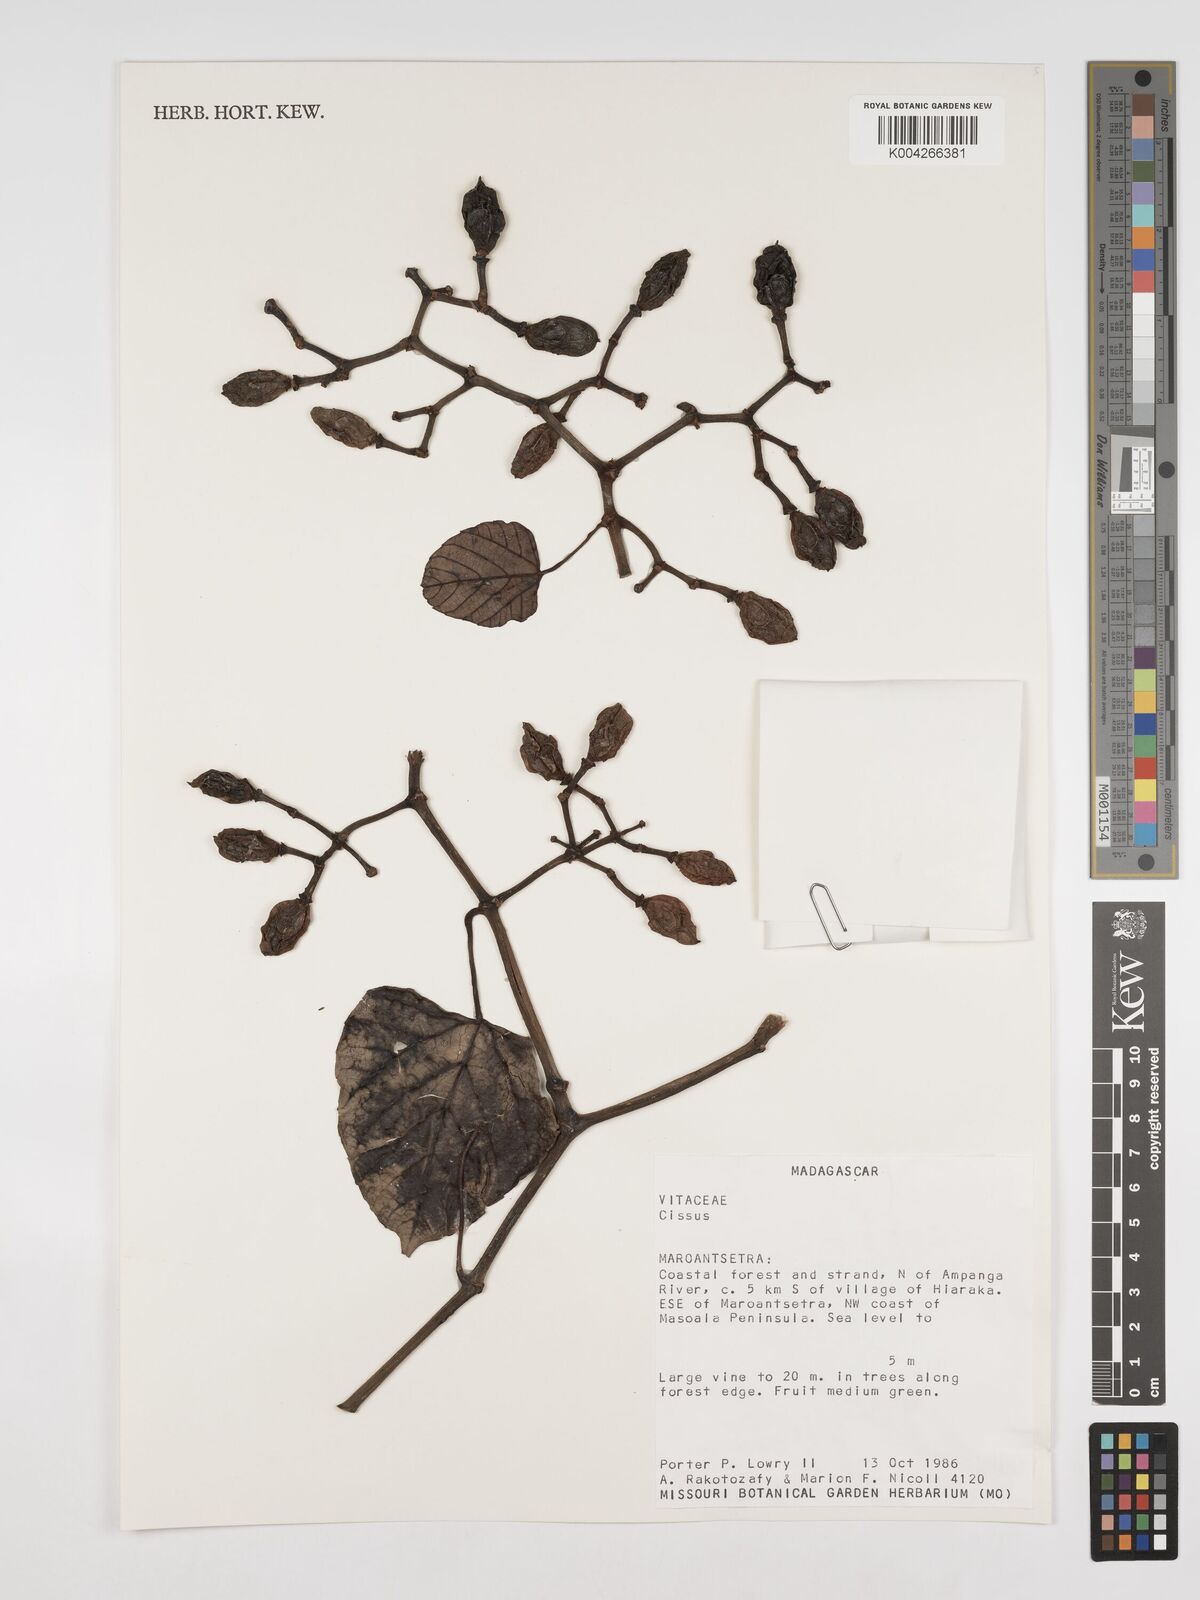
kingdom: Plantae
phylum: Tracheophyta
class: Magnoliopsida
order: Vitales
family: Vitaceae
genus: Cissus
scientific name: Cissus
